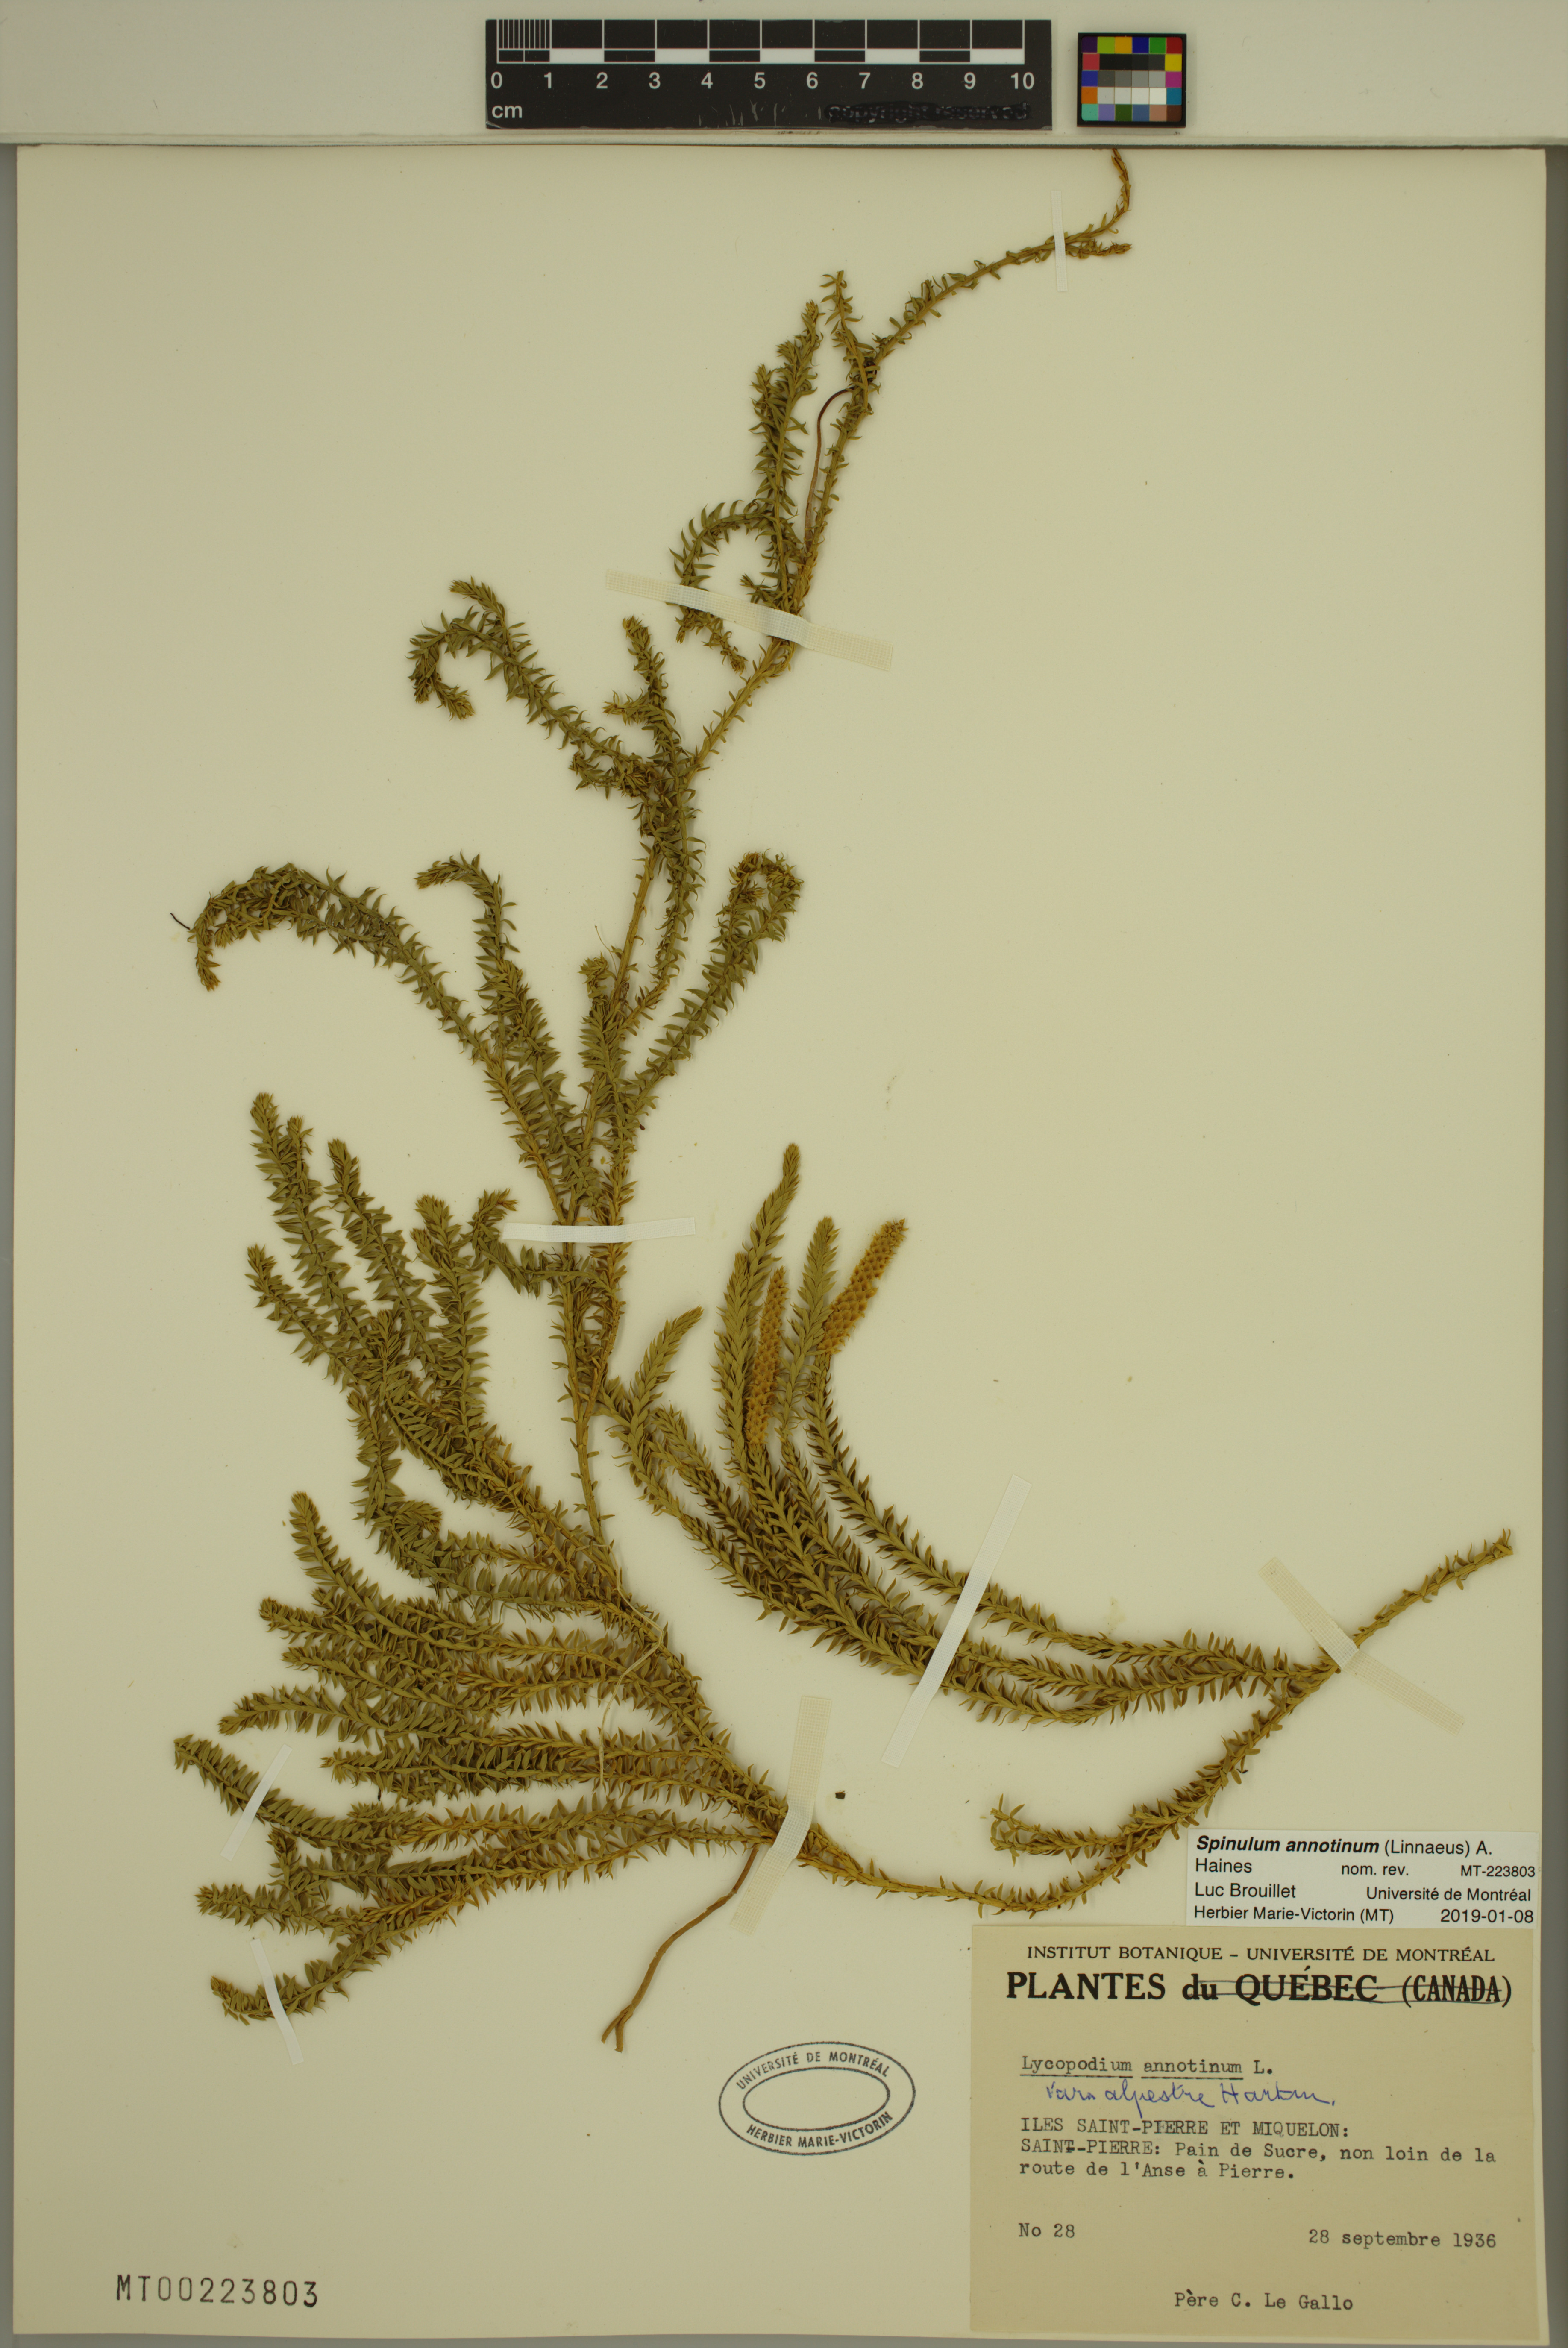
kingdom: Plantae
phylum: Tracheophyta
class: Lycopodiopsida
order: Lycopodiales
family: Lycopodiaceae
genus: Spinulum
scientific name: Spinulum annotinum
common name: Interrupted club-moss
